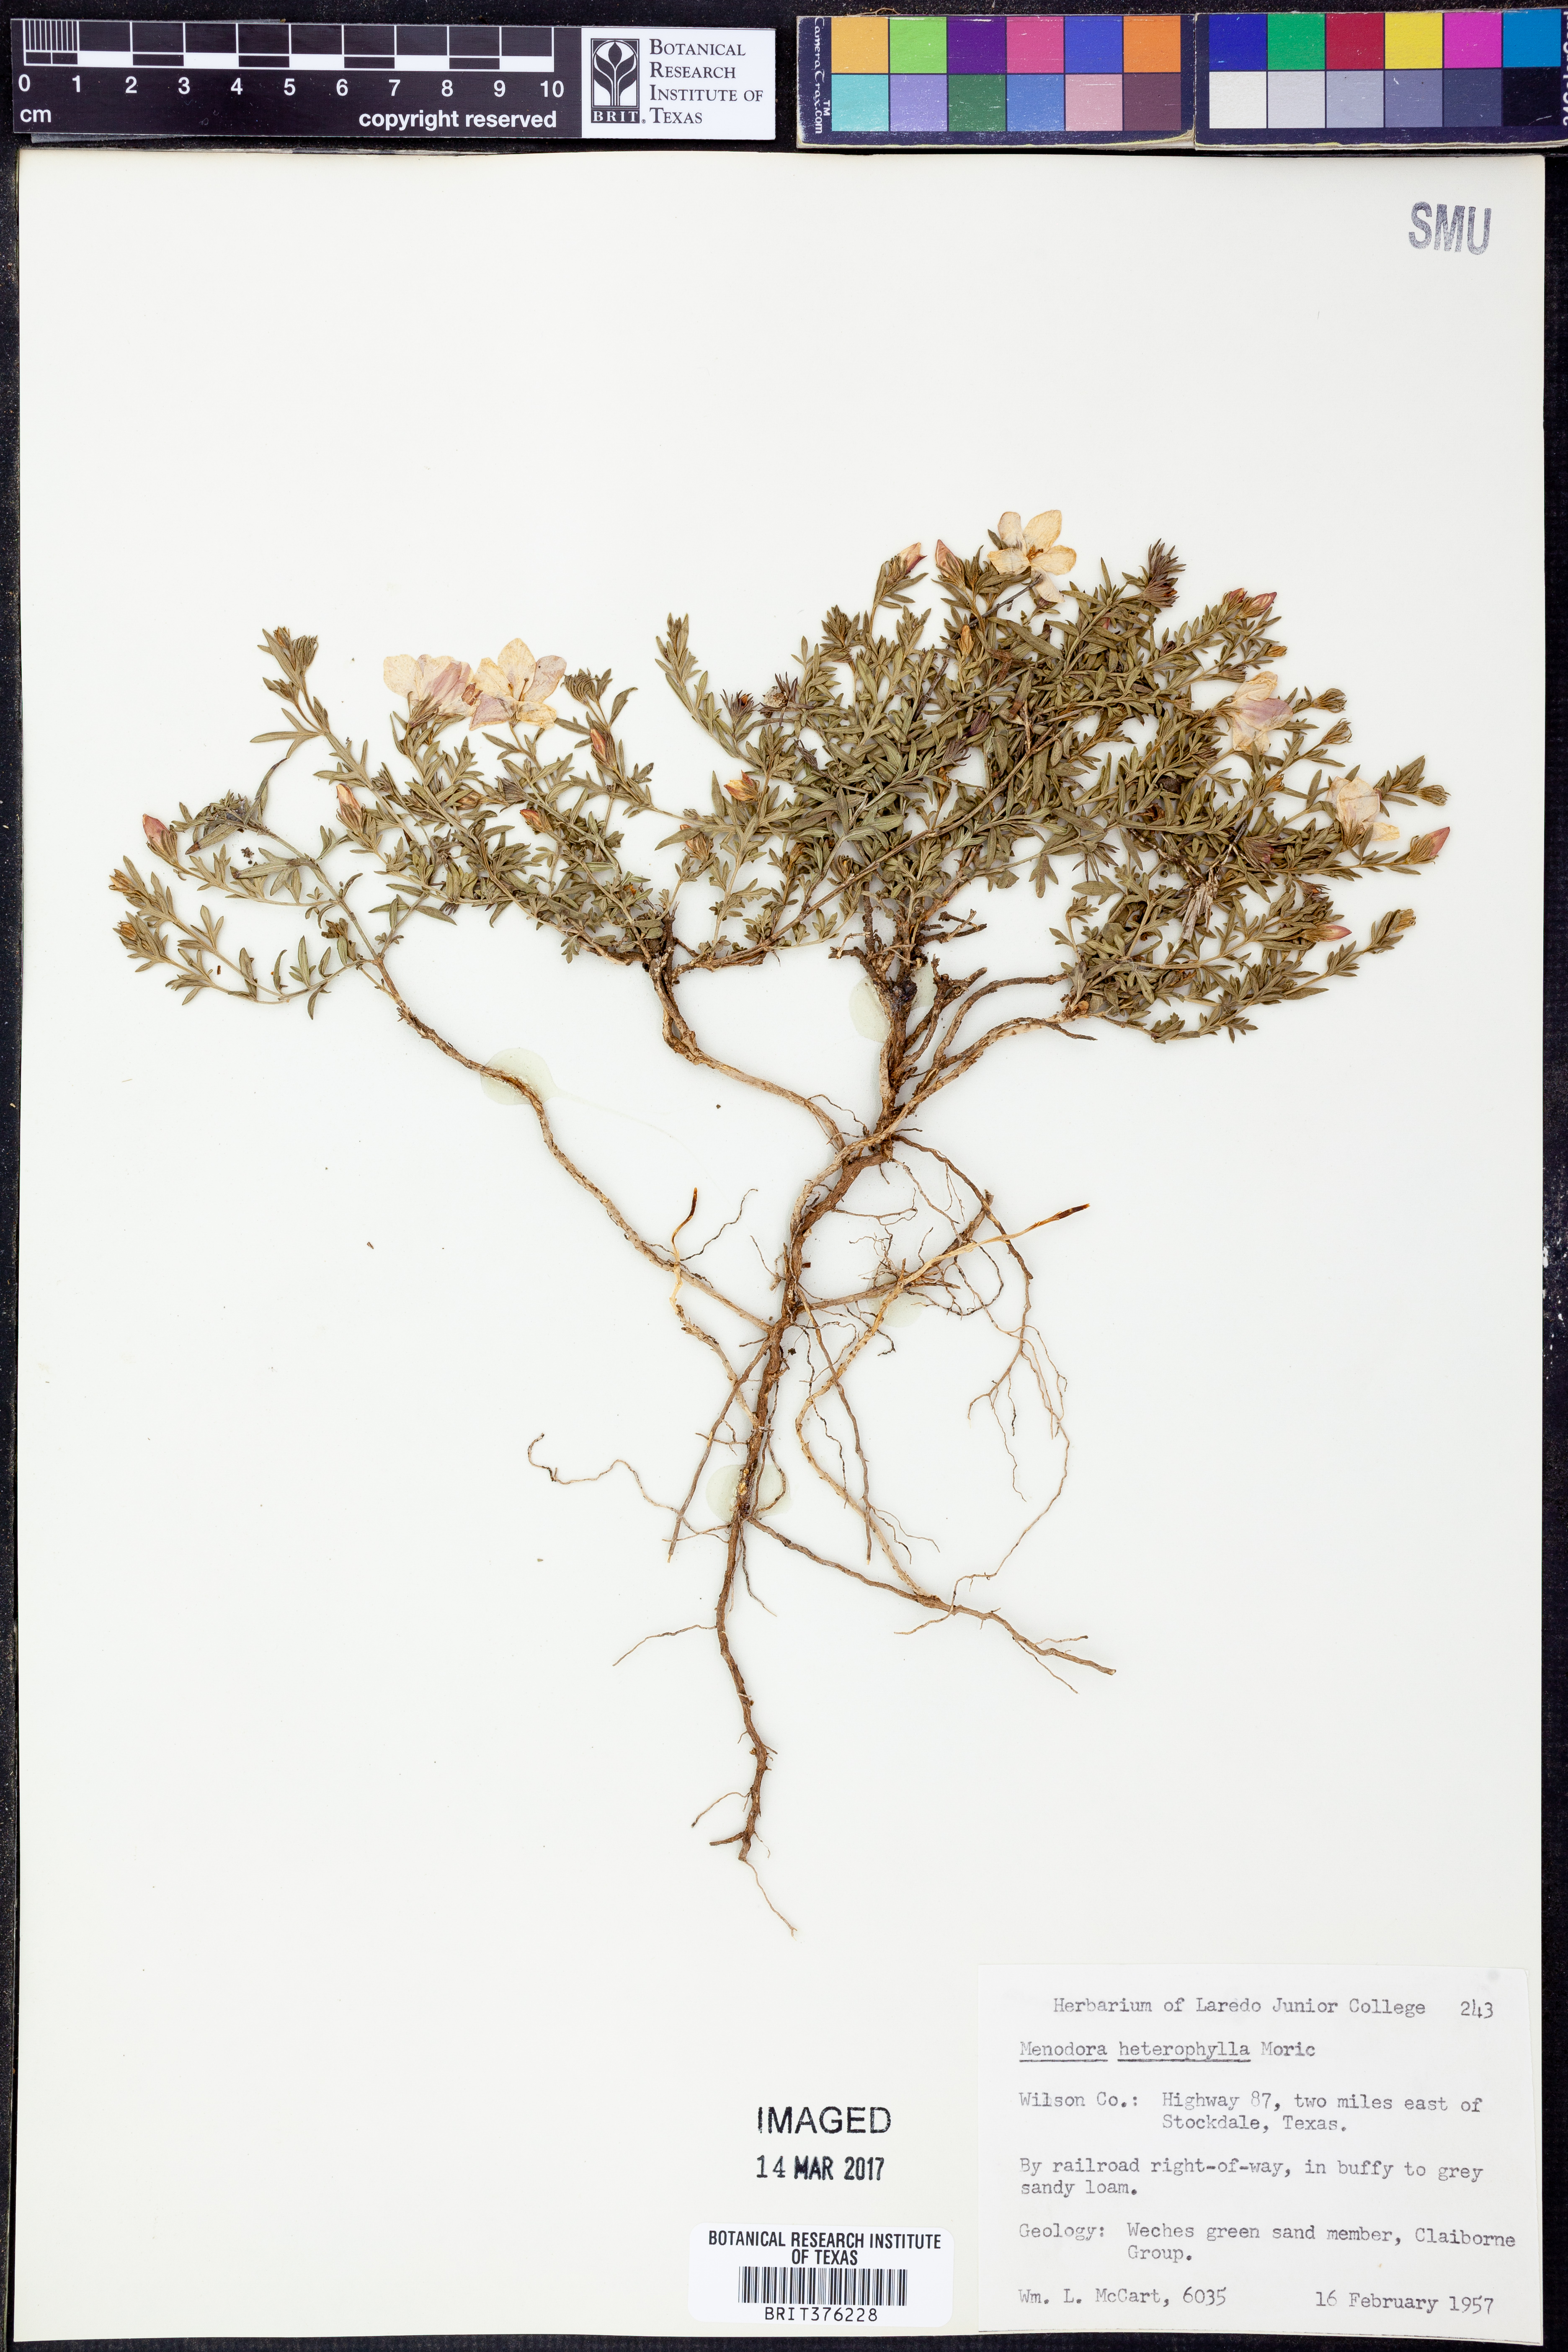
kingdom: Plantae
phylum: Tracheophyta
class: Magnoliopsida
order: Lamiales
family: Oleaceae
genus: Menodora
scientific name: Menodora heterophylla
